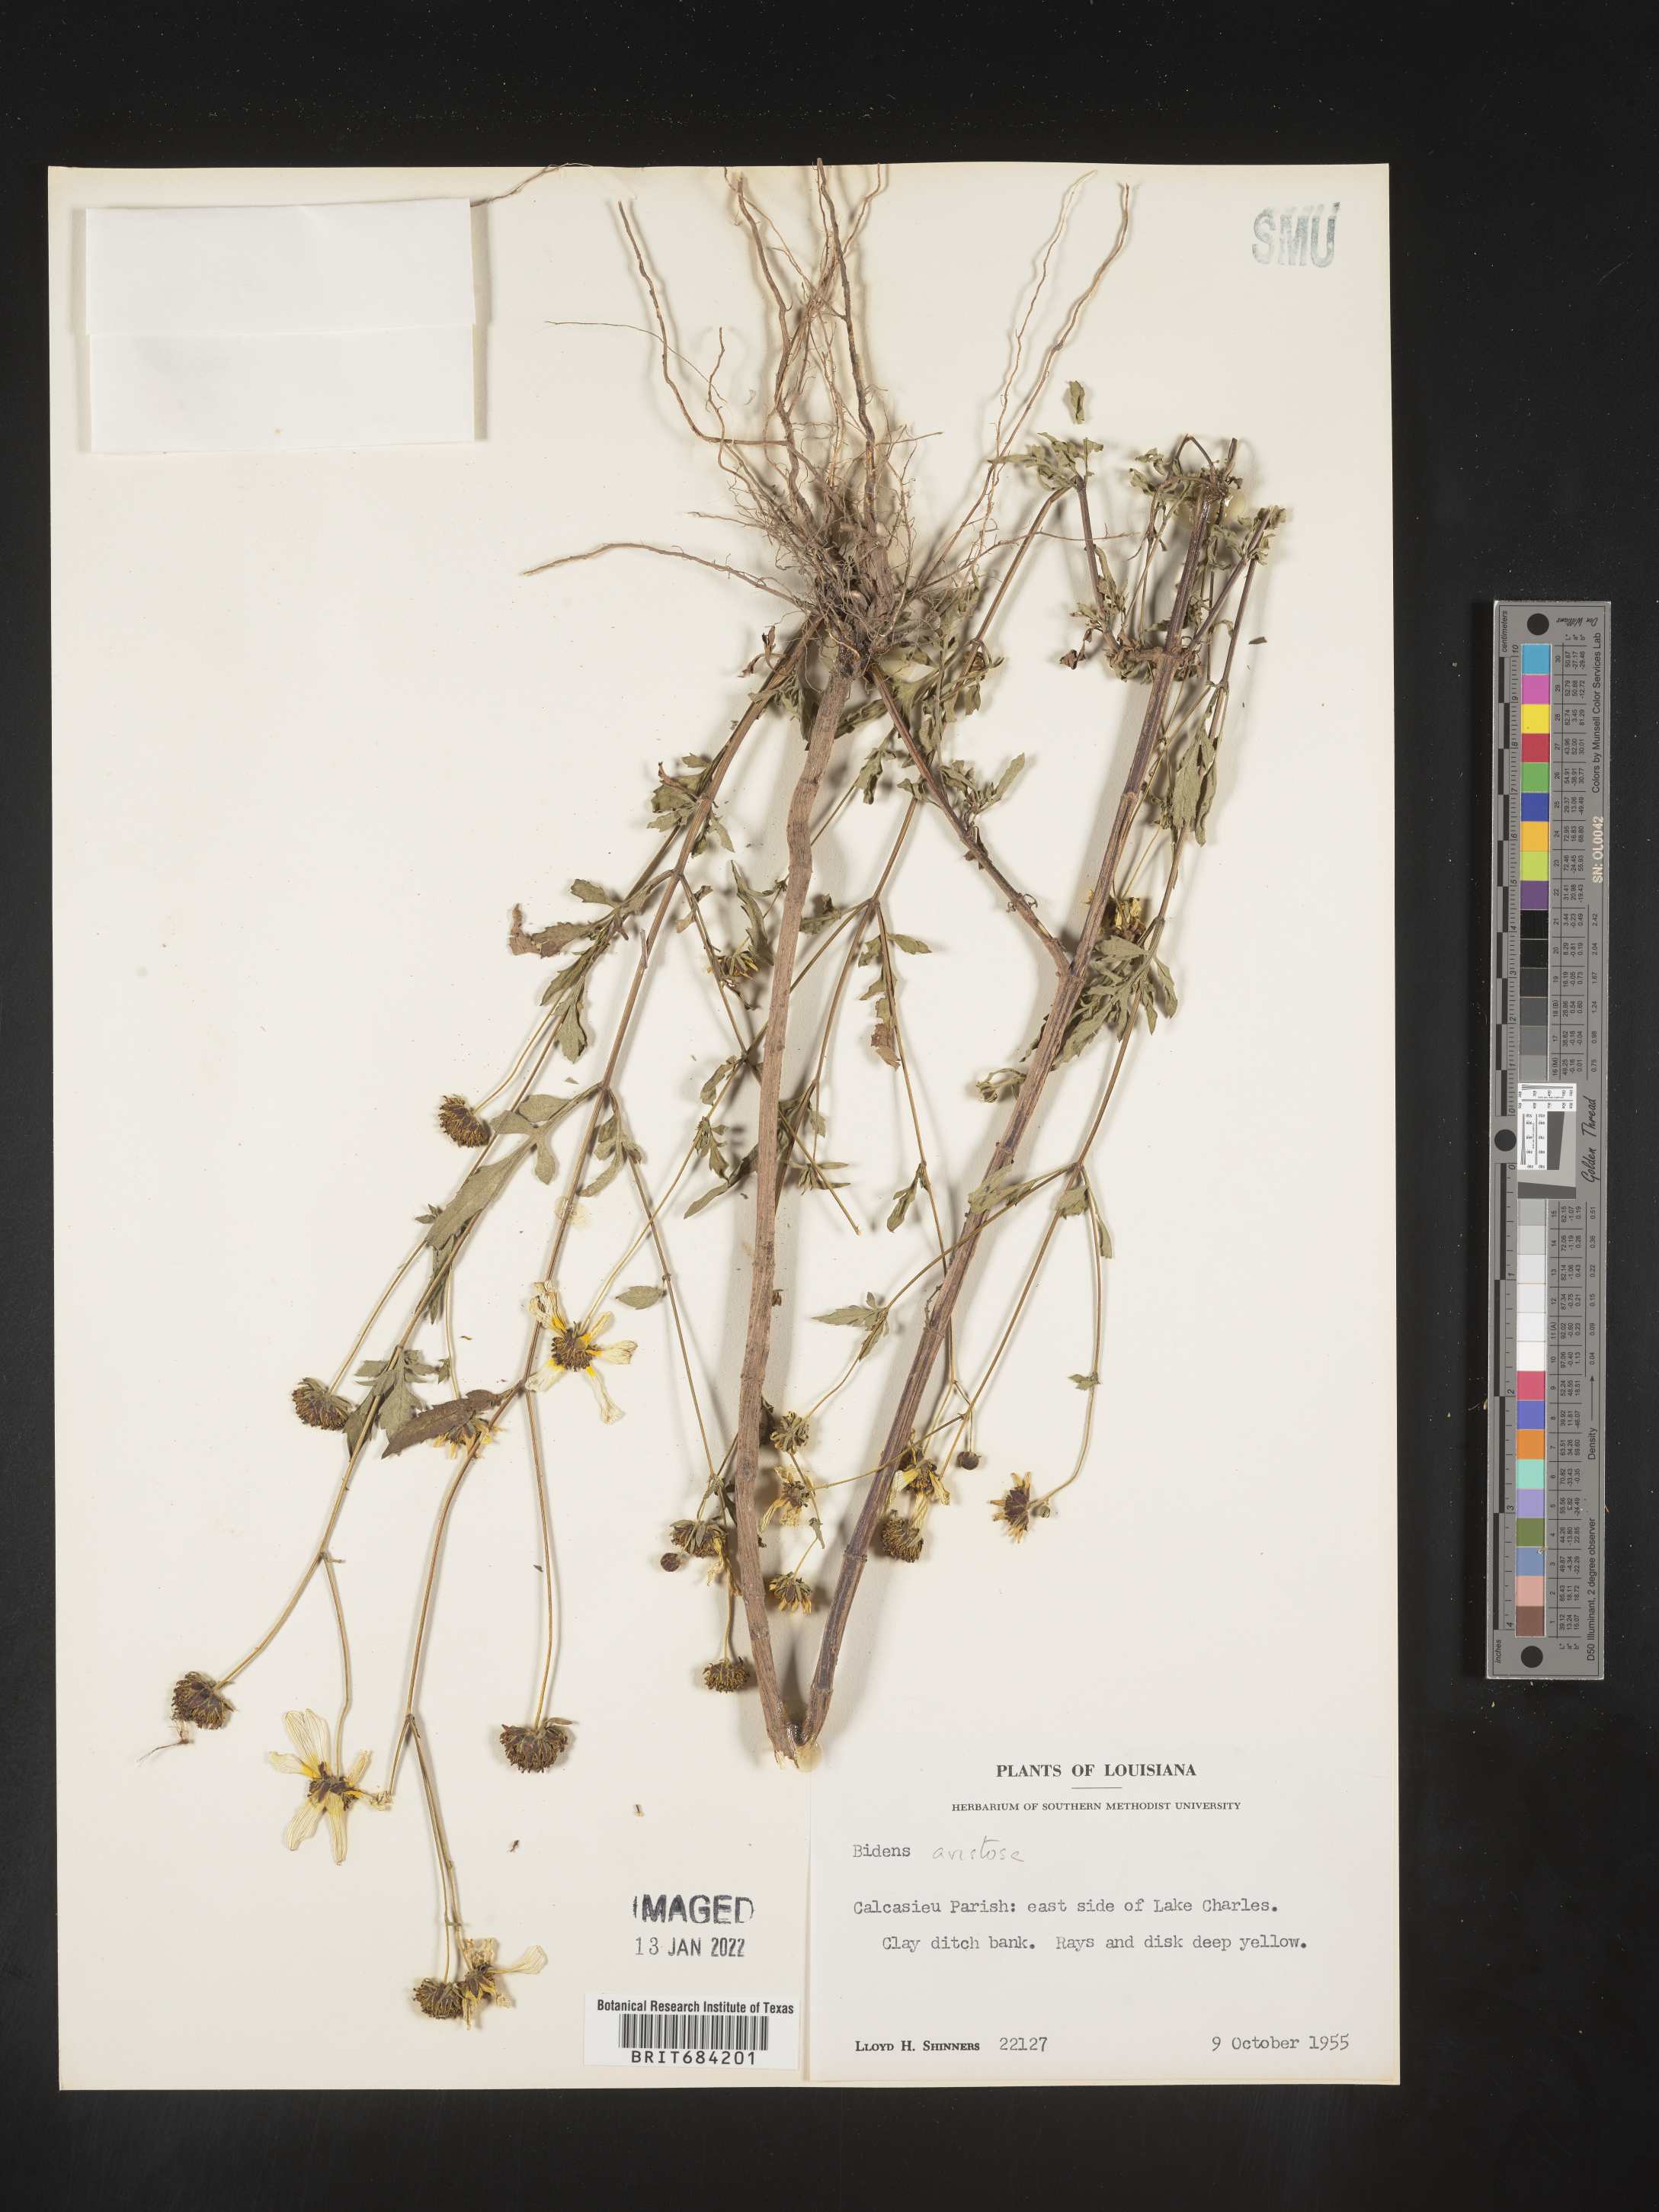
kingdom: Plantae
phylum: Tracheophyta
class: Magnoliopsida
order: Asterales
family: Asteraceae
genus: Bidens
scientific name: Bidens aristosa
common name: Western tickseed
